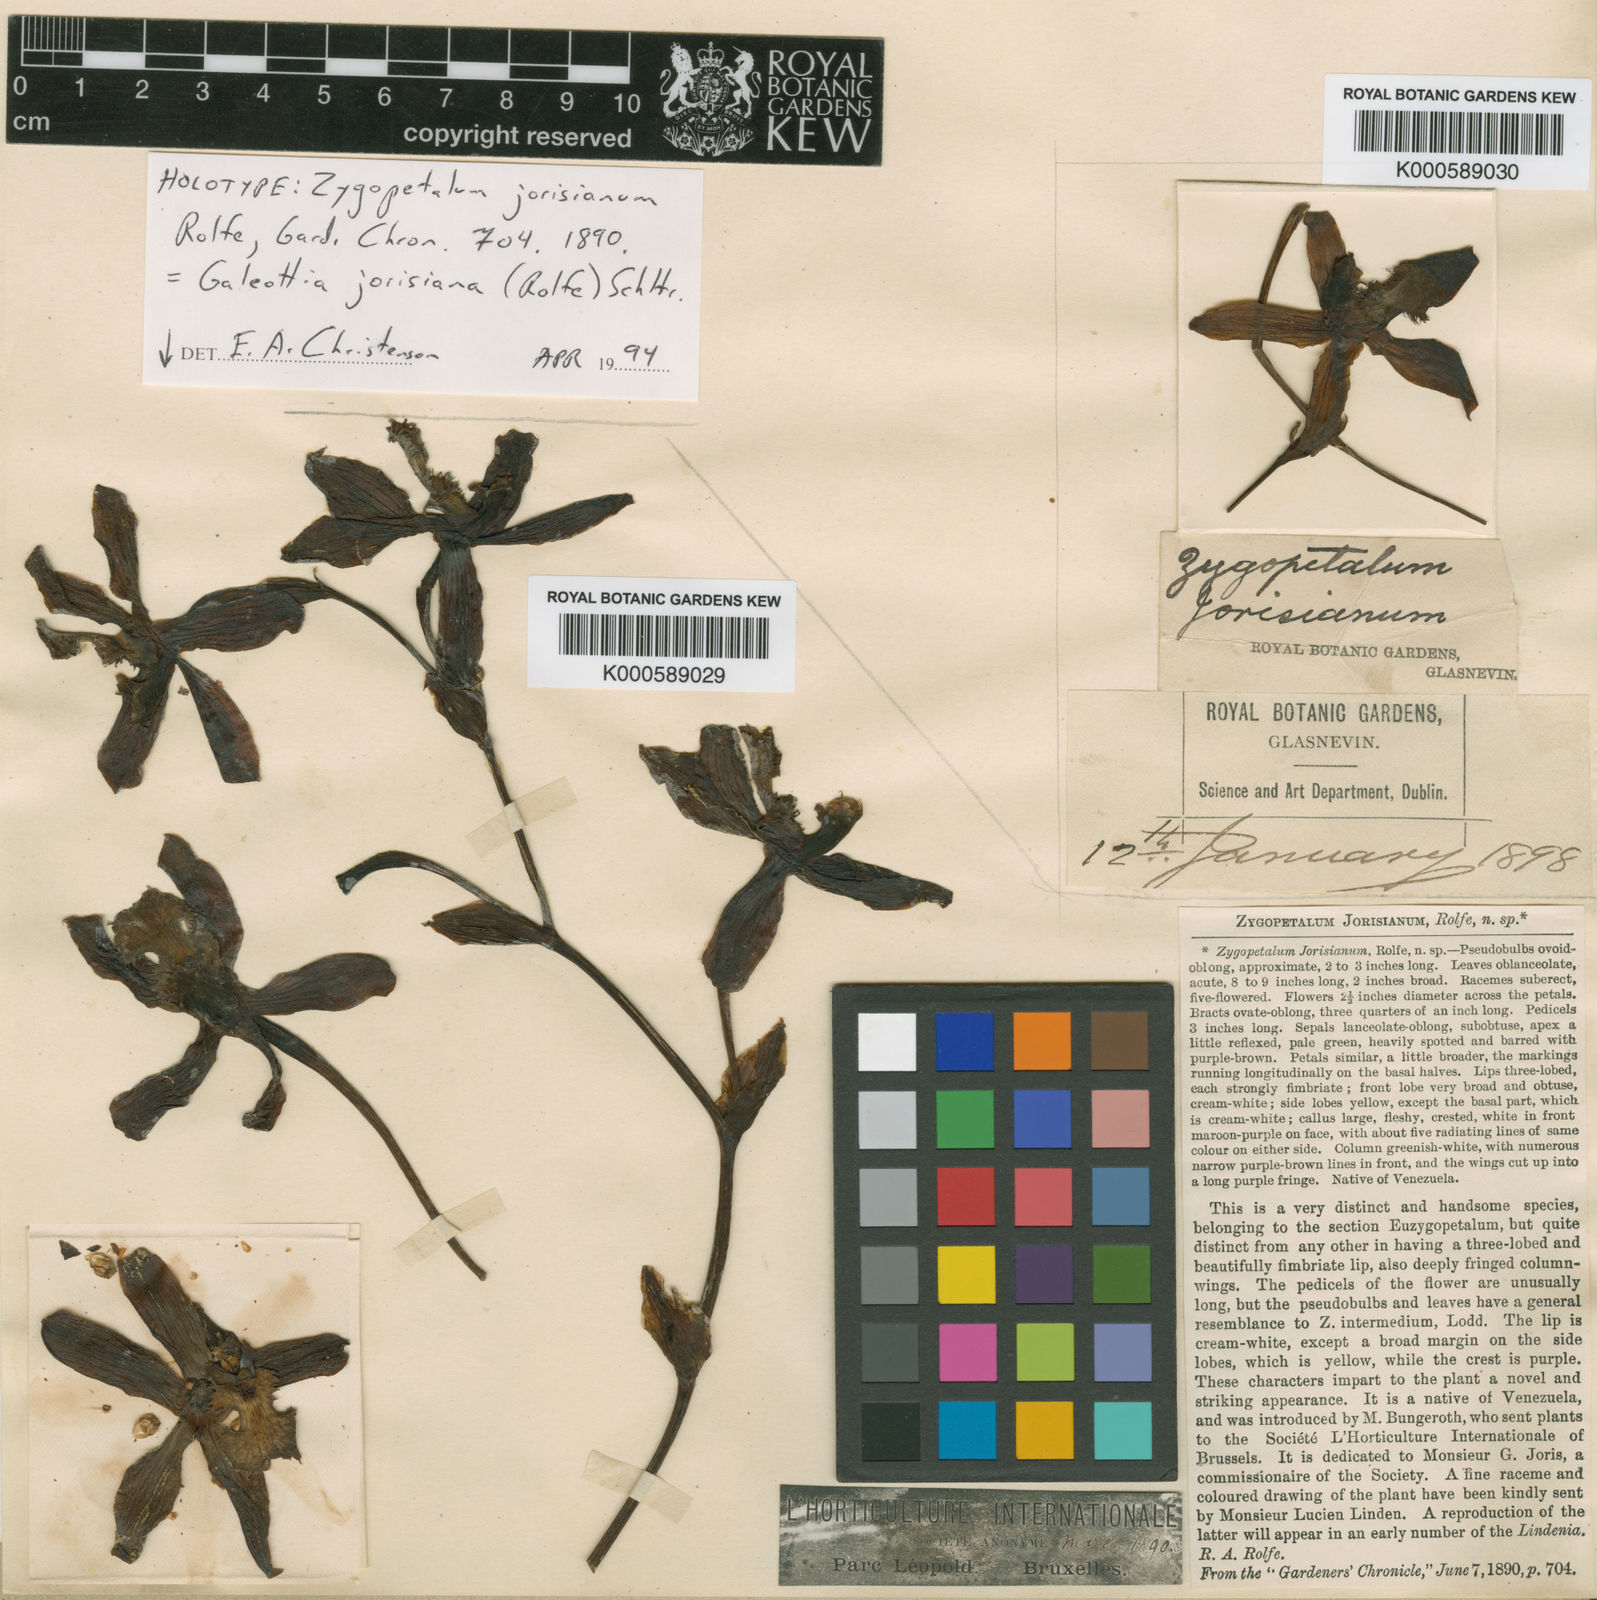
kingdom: Plantae
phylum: Tracheophyta
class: Liliopsida
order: Asparagales
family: Orchidaceae
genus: Galeottia
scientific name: Galeottia jorisiana
